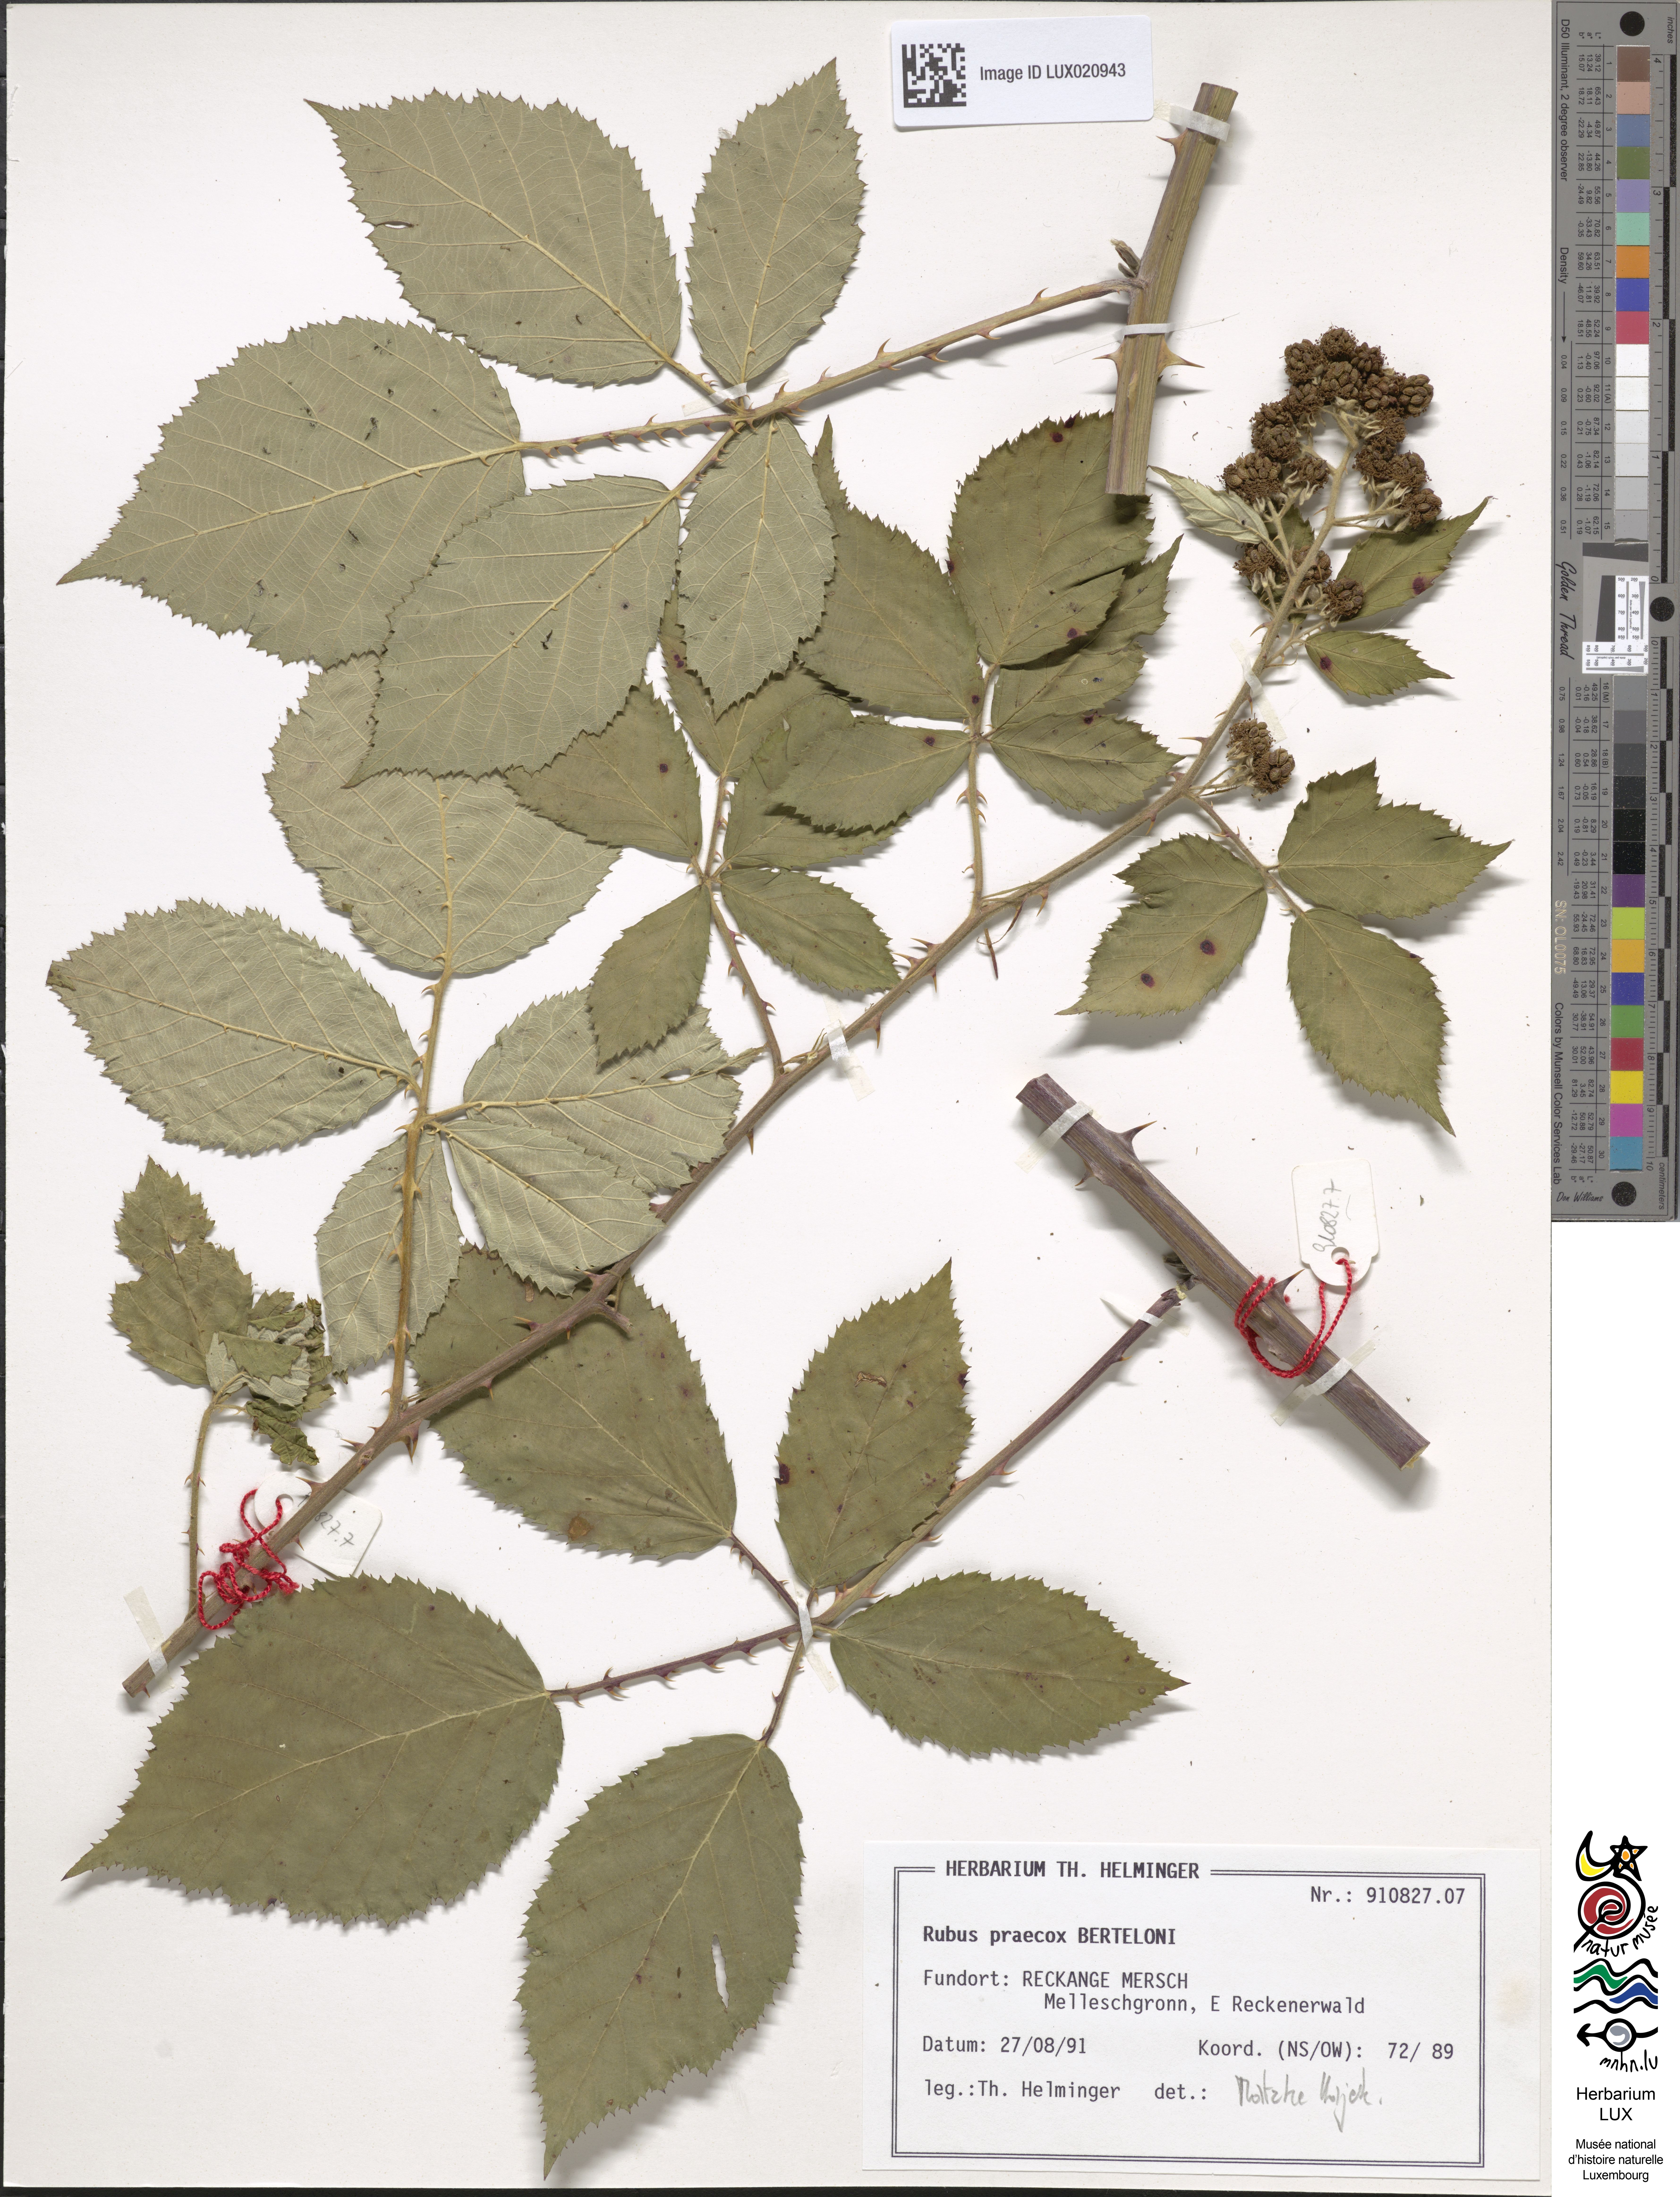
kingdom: Plantae
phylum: Tracheophyta
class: Magnoliopsida
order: Rosales
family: Rosaceae
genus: Rubus
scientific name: Rubus praecox
